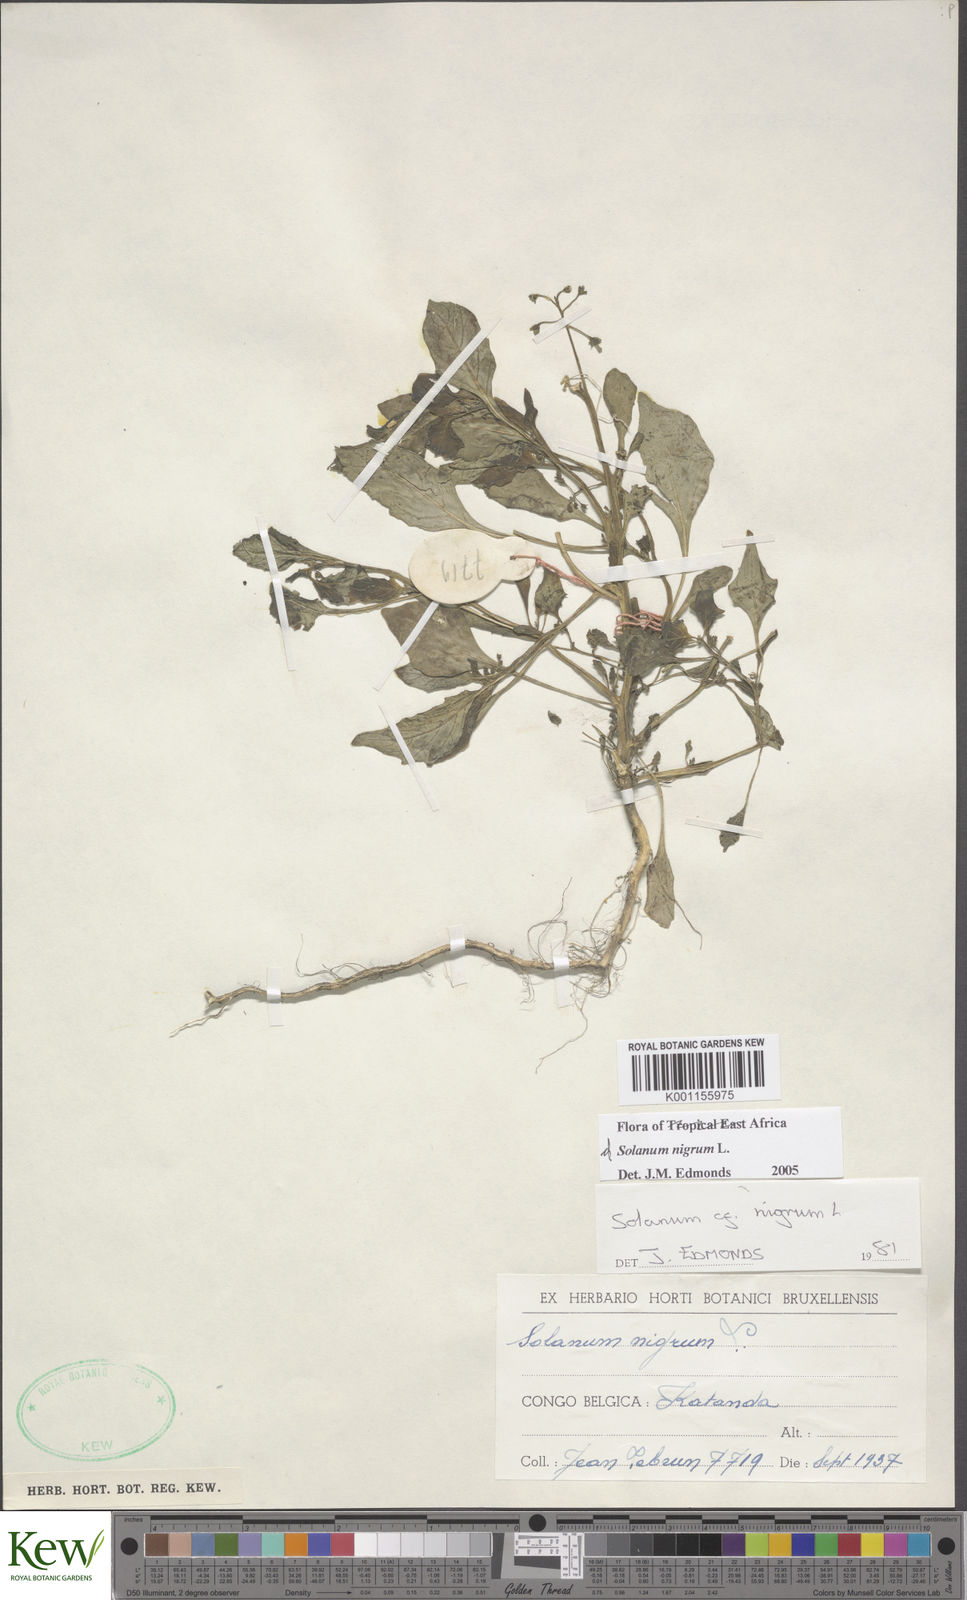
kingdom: Plantae
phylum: Tracheophyta
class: Magnoliopsida
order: Solanales
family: Solanaceae
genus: Solanum
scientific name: Solanum tarderemotum
